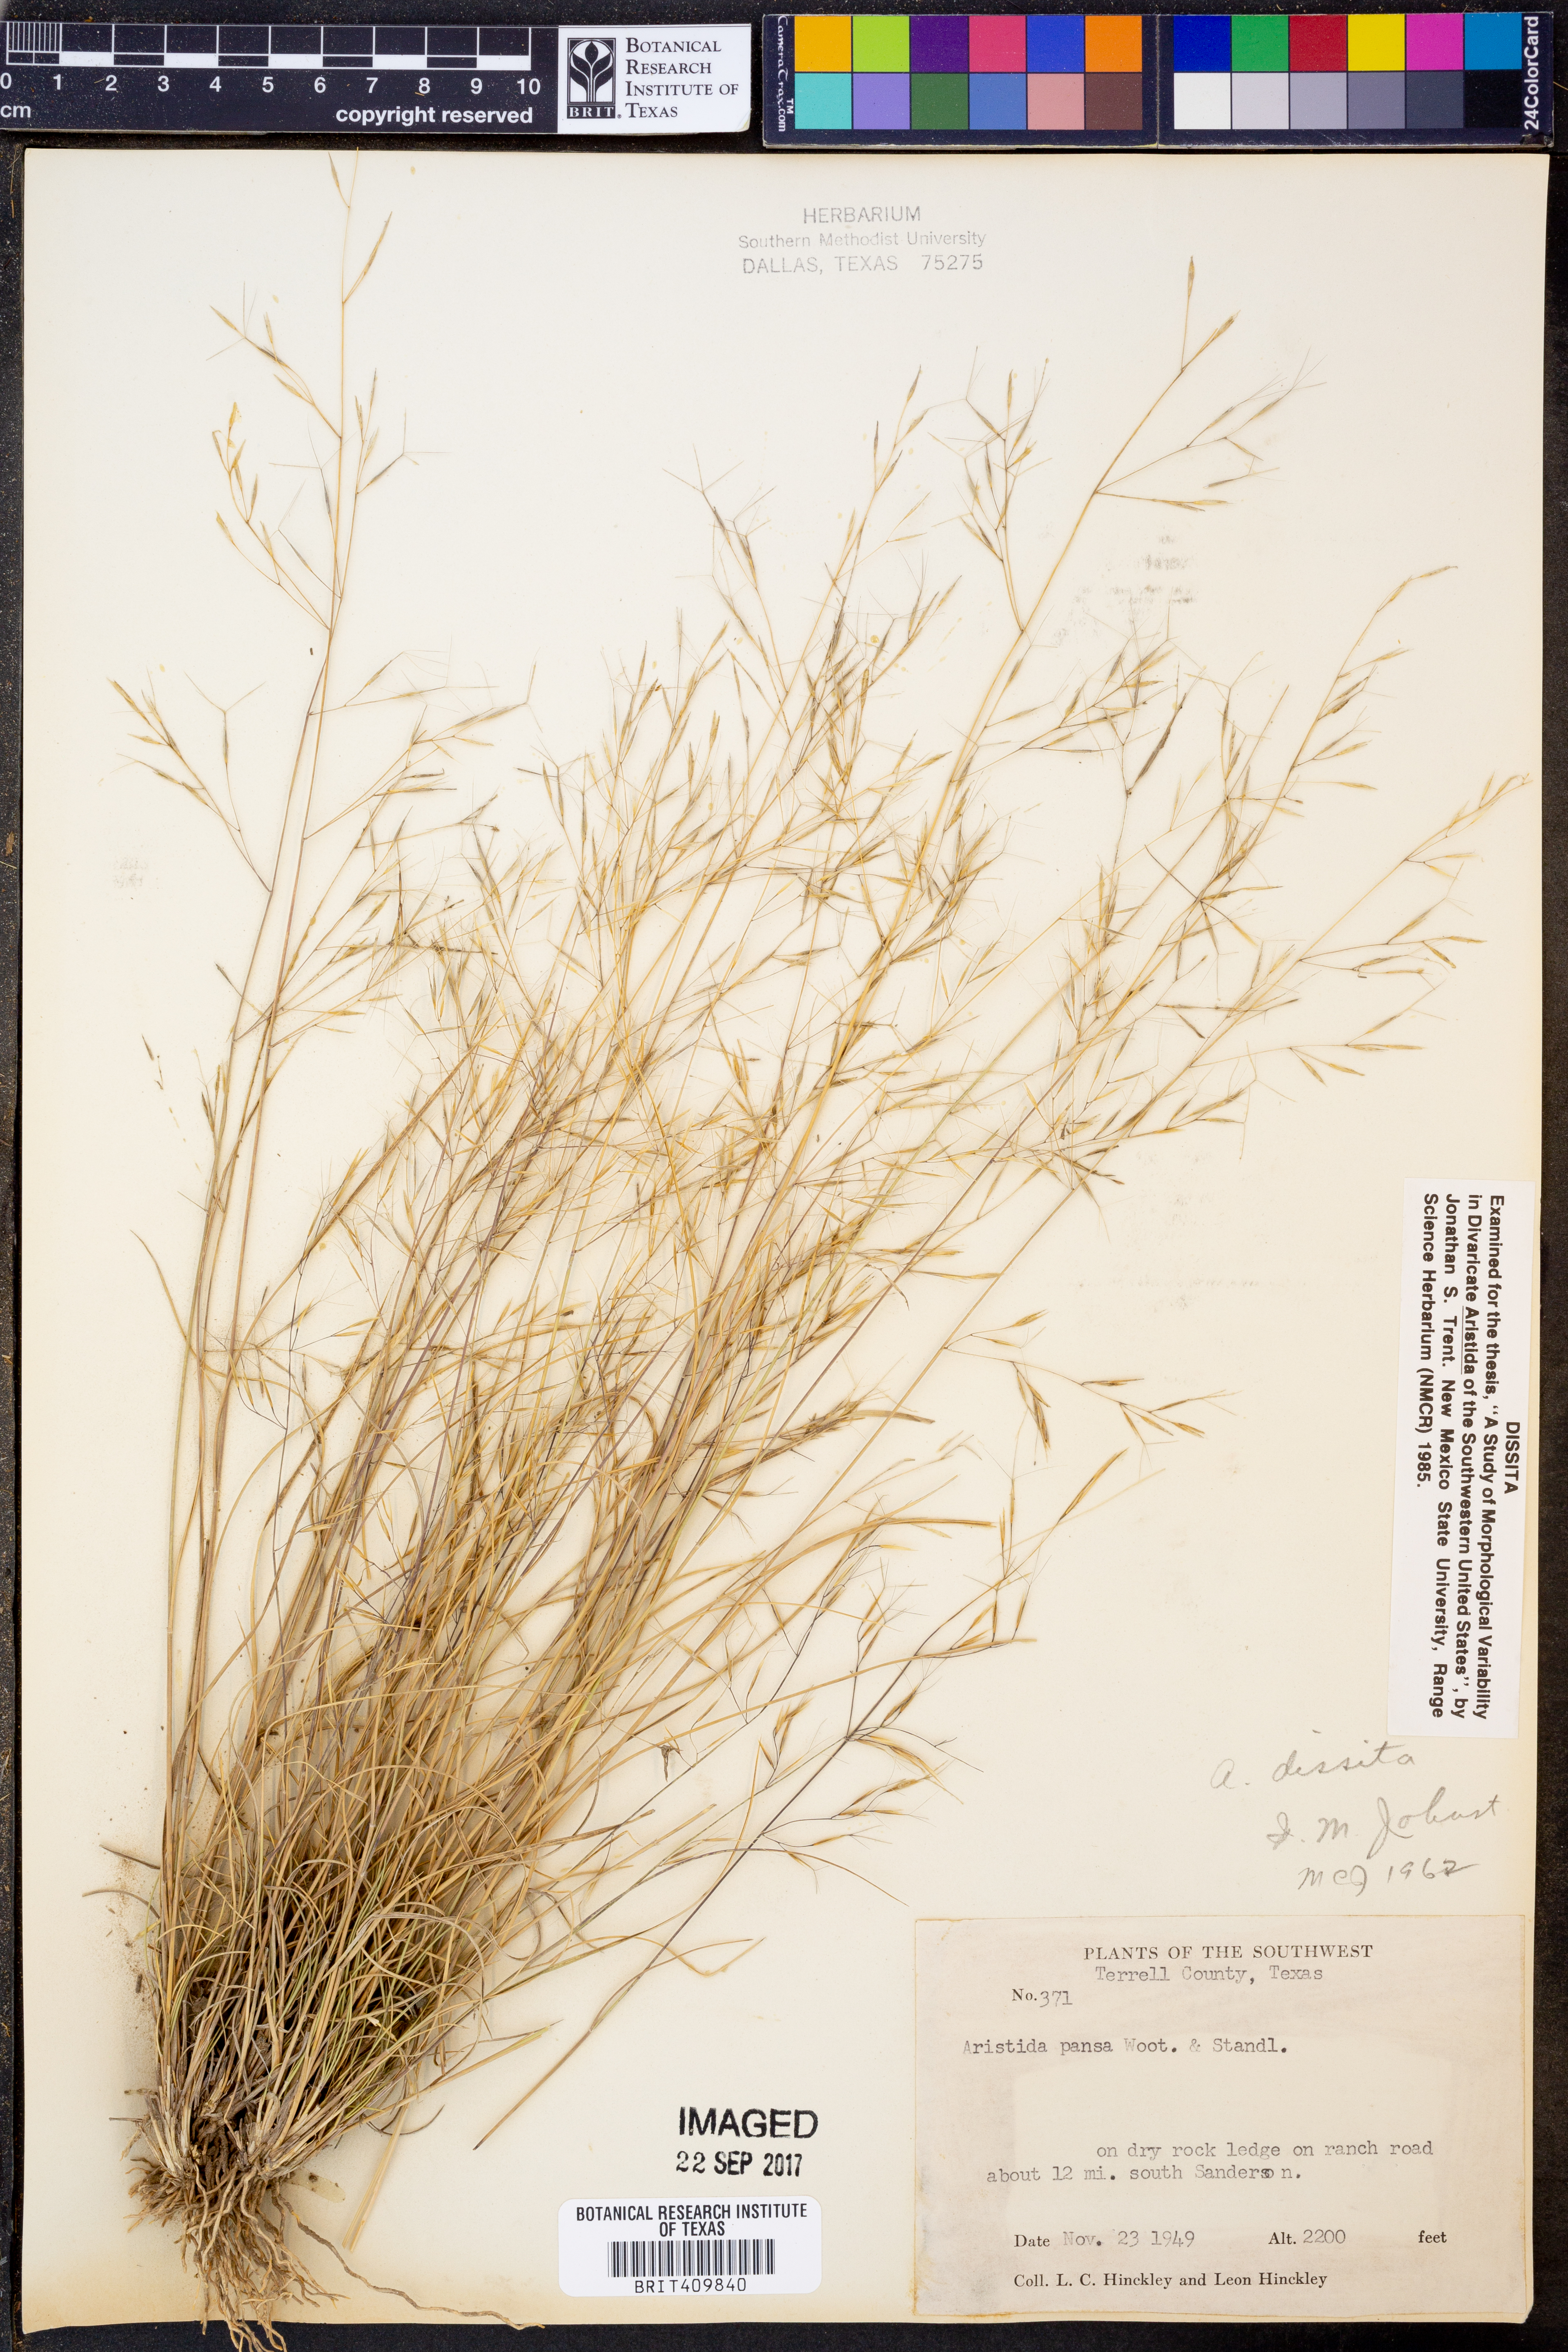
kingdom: Plantae
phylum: Tracheophyta
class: Liliopsida
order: Poales
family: Poaceae
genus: Aristida
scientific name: Aristida pansa
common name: Wooton's three-awn
